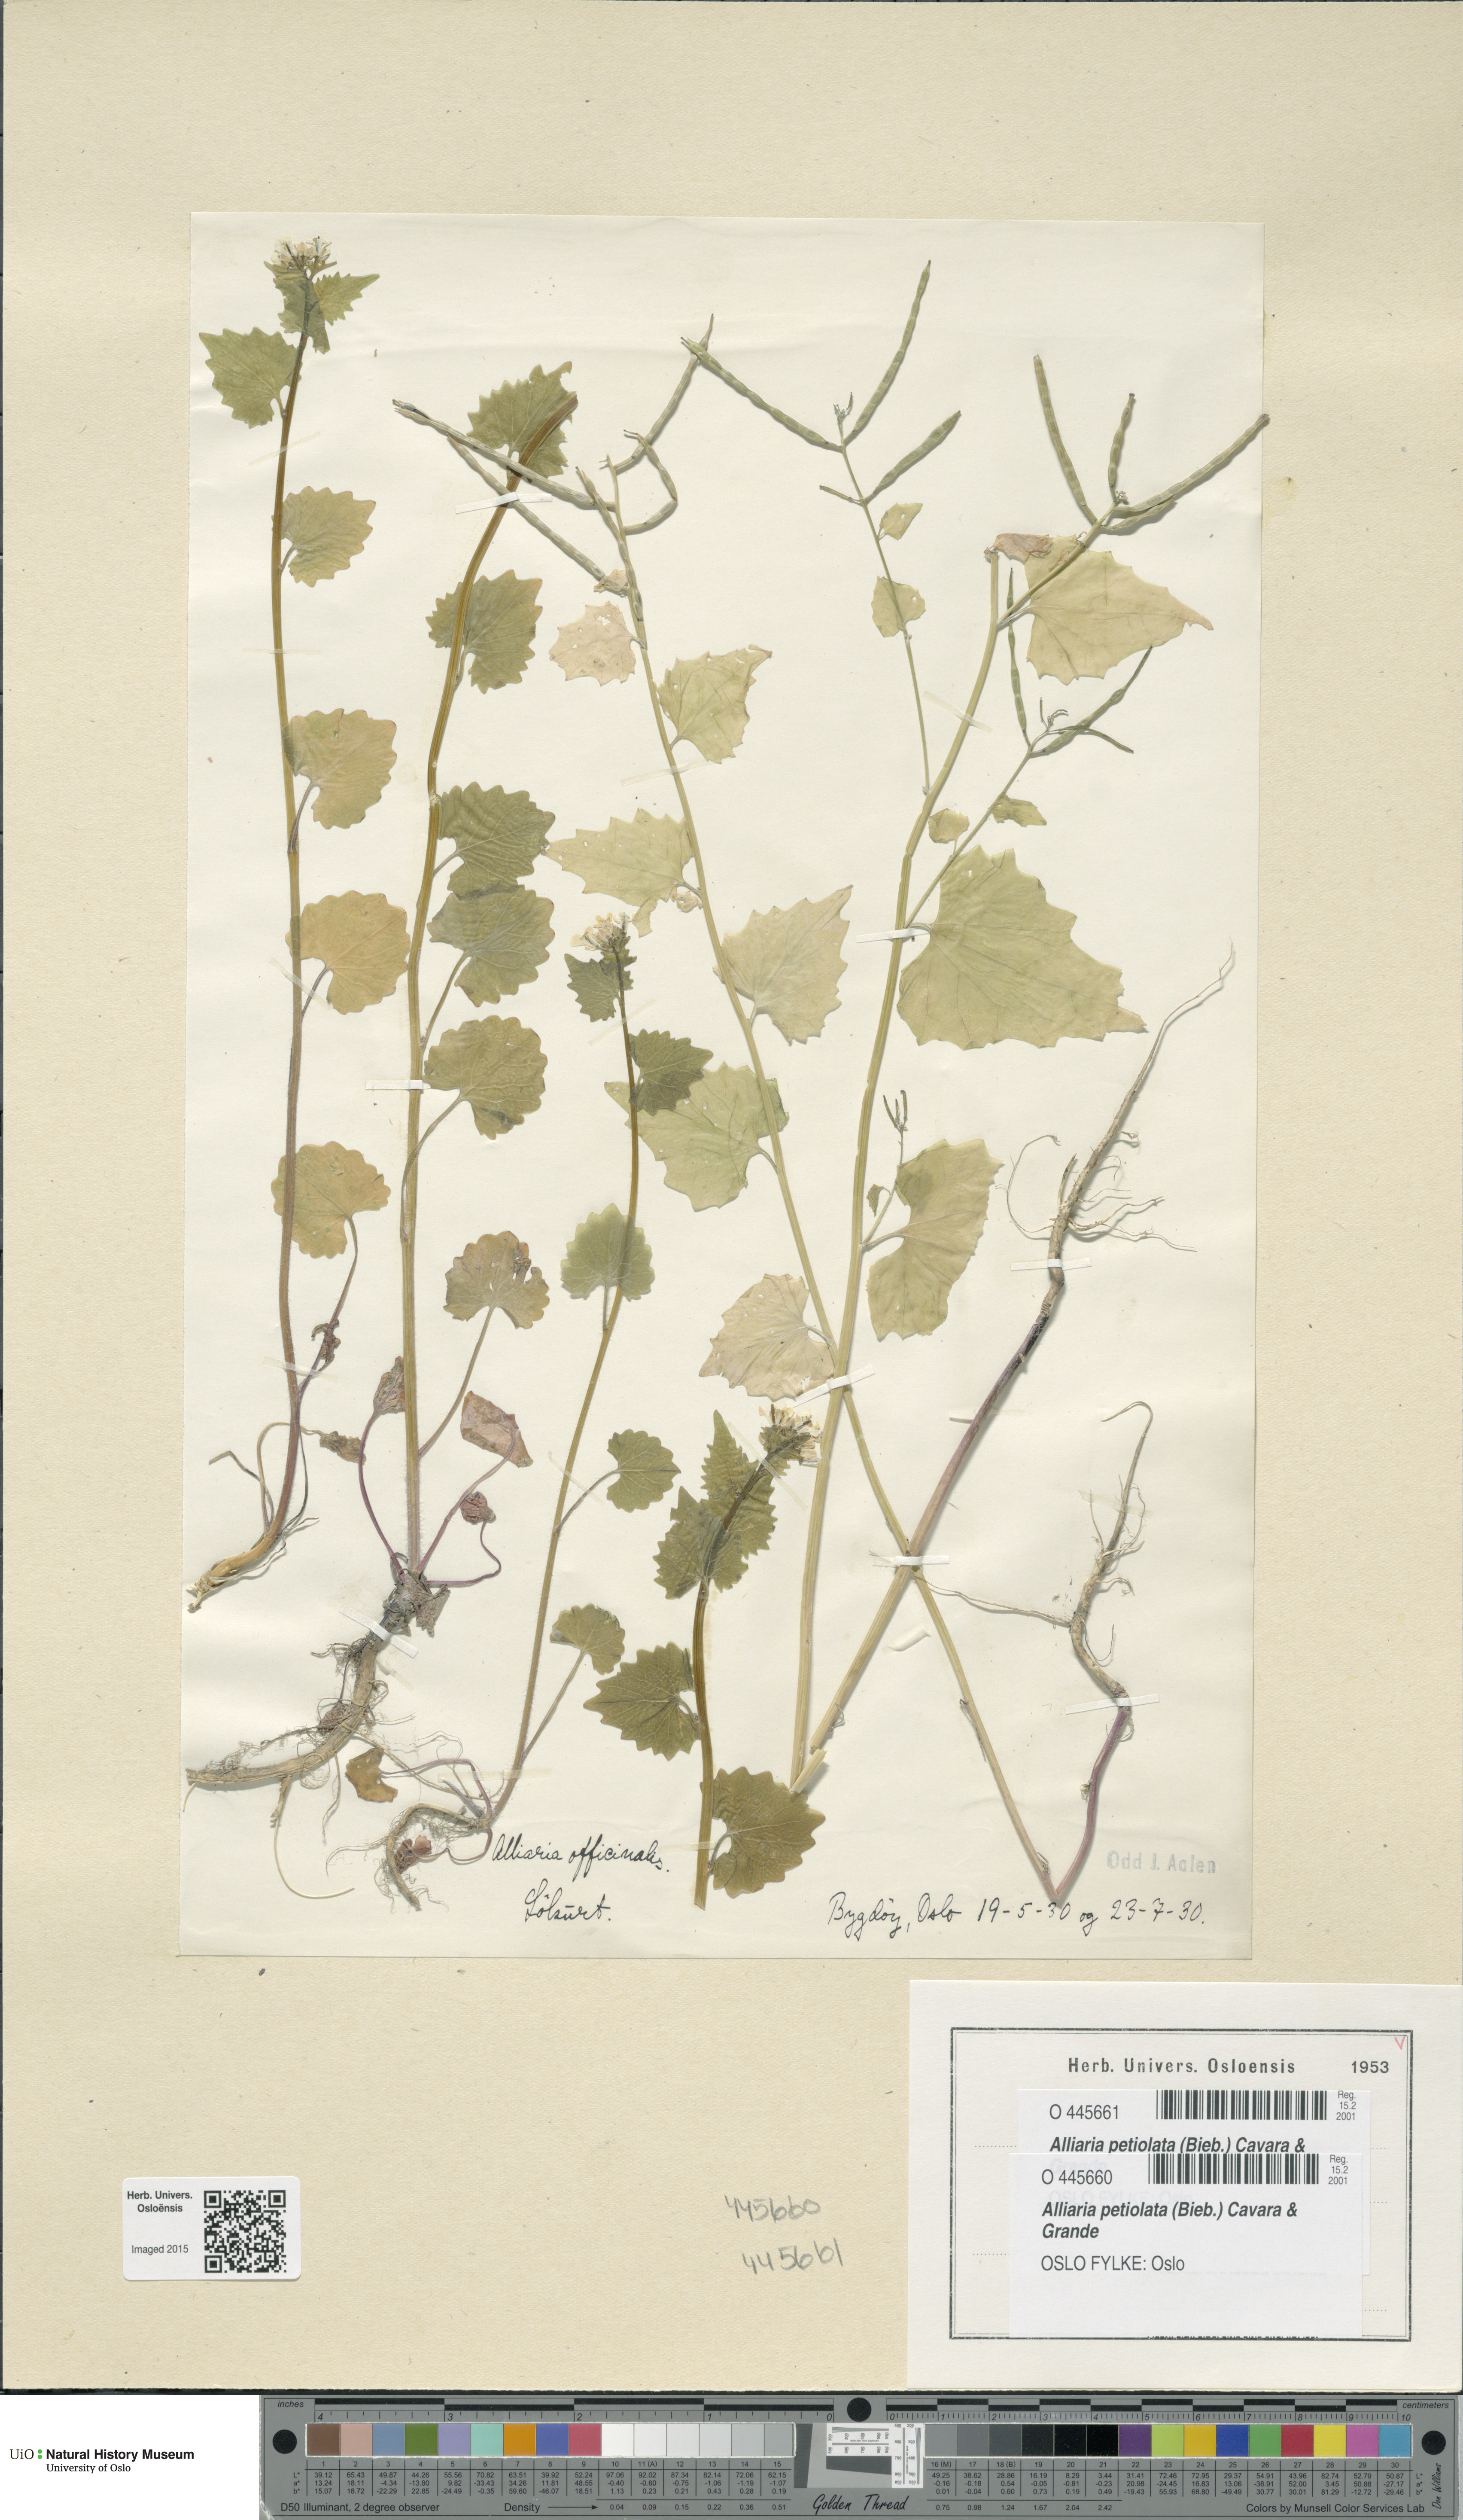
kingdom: Plantae
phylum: Tracheophyta
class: Magnoliopsida
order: Brassicales
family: Brassicaceae
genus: Alliaria
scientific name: Alliaria petiolata
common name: Garlic mustard
